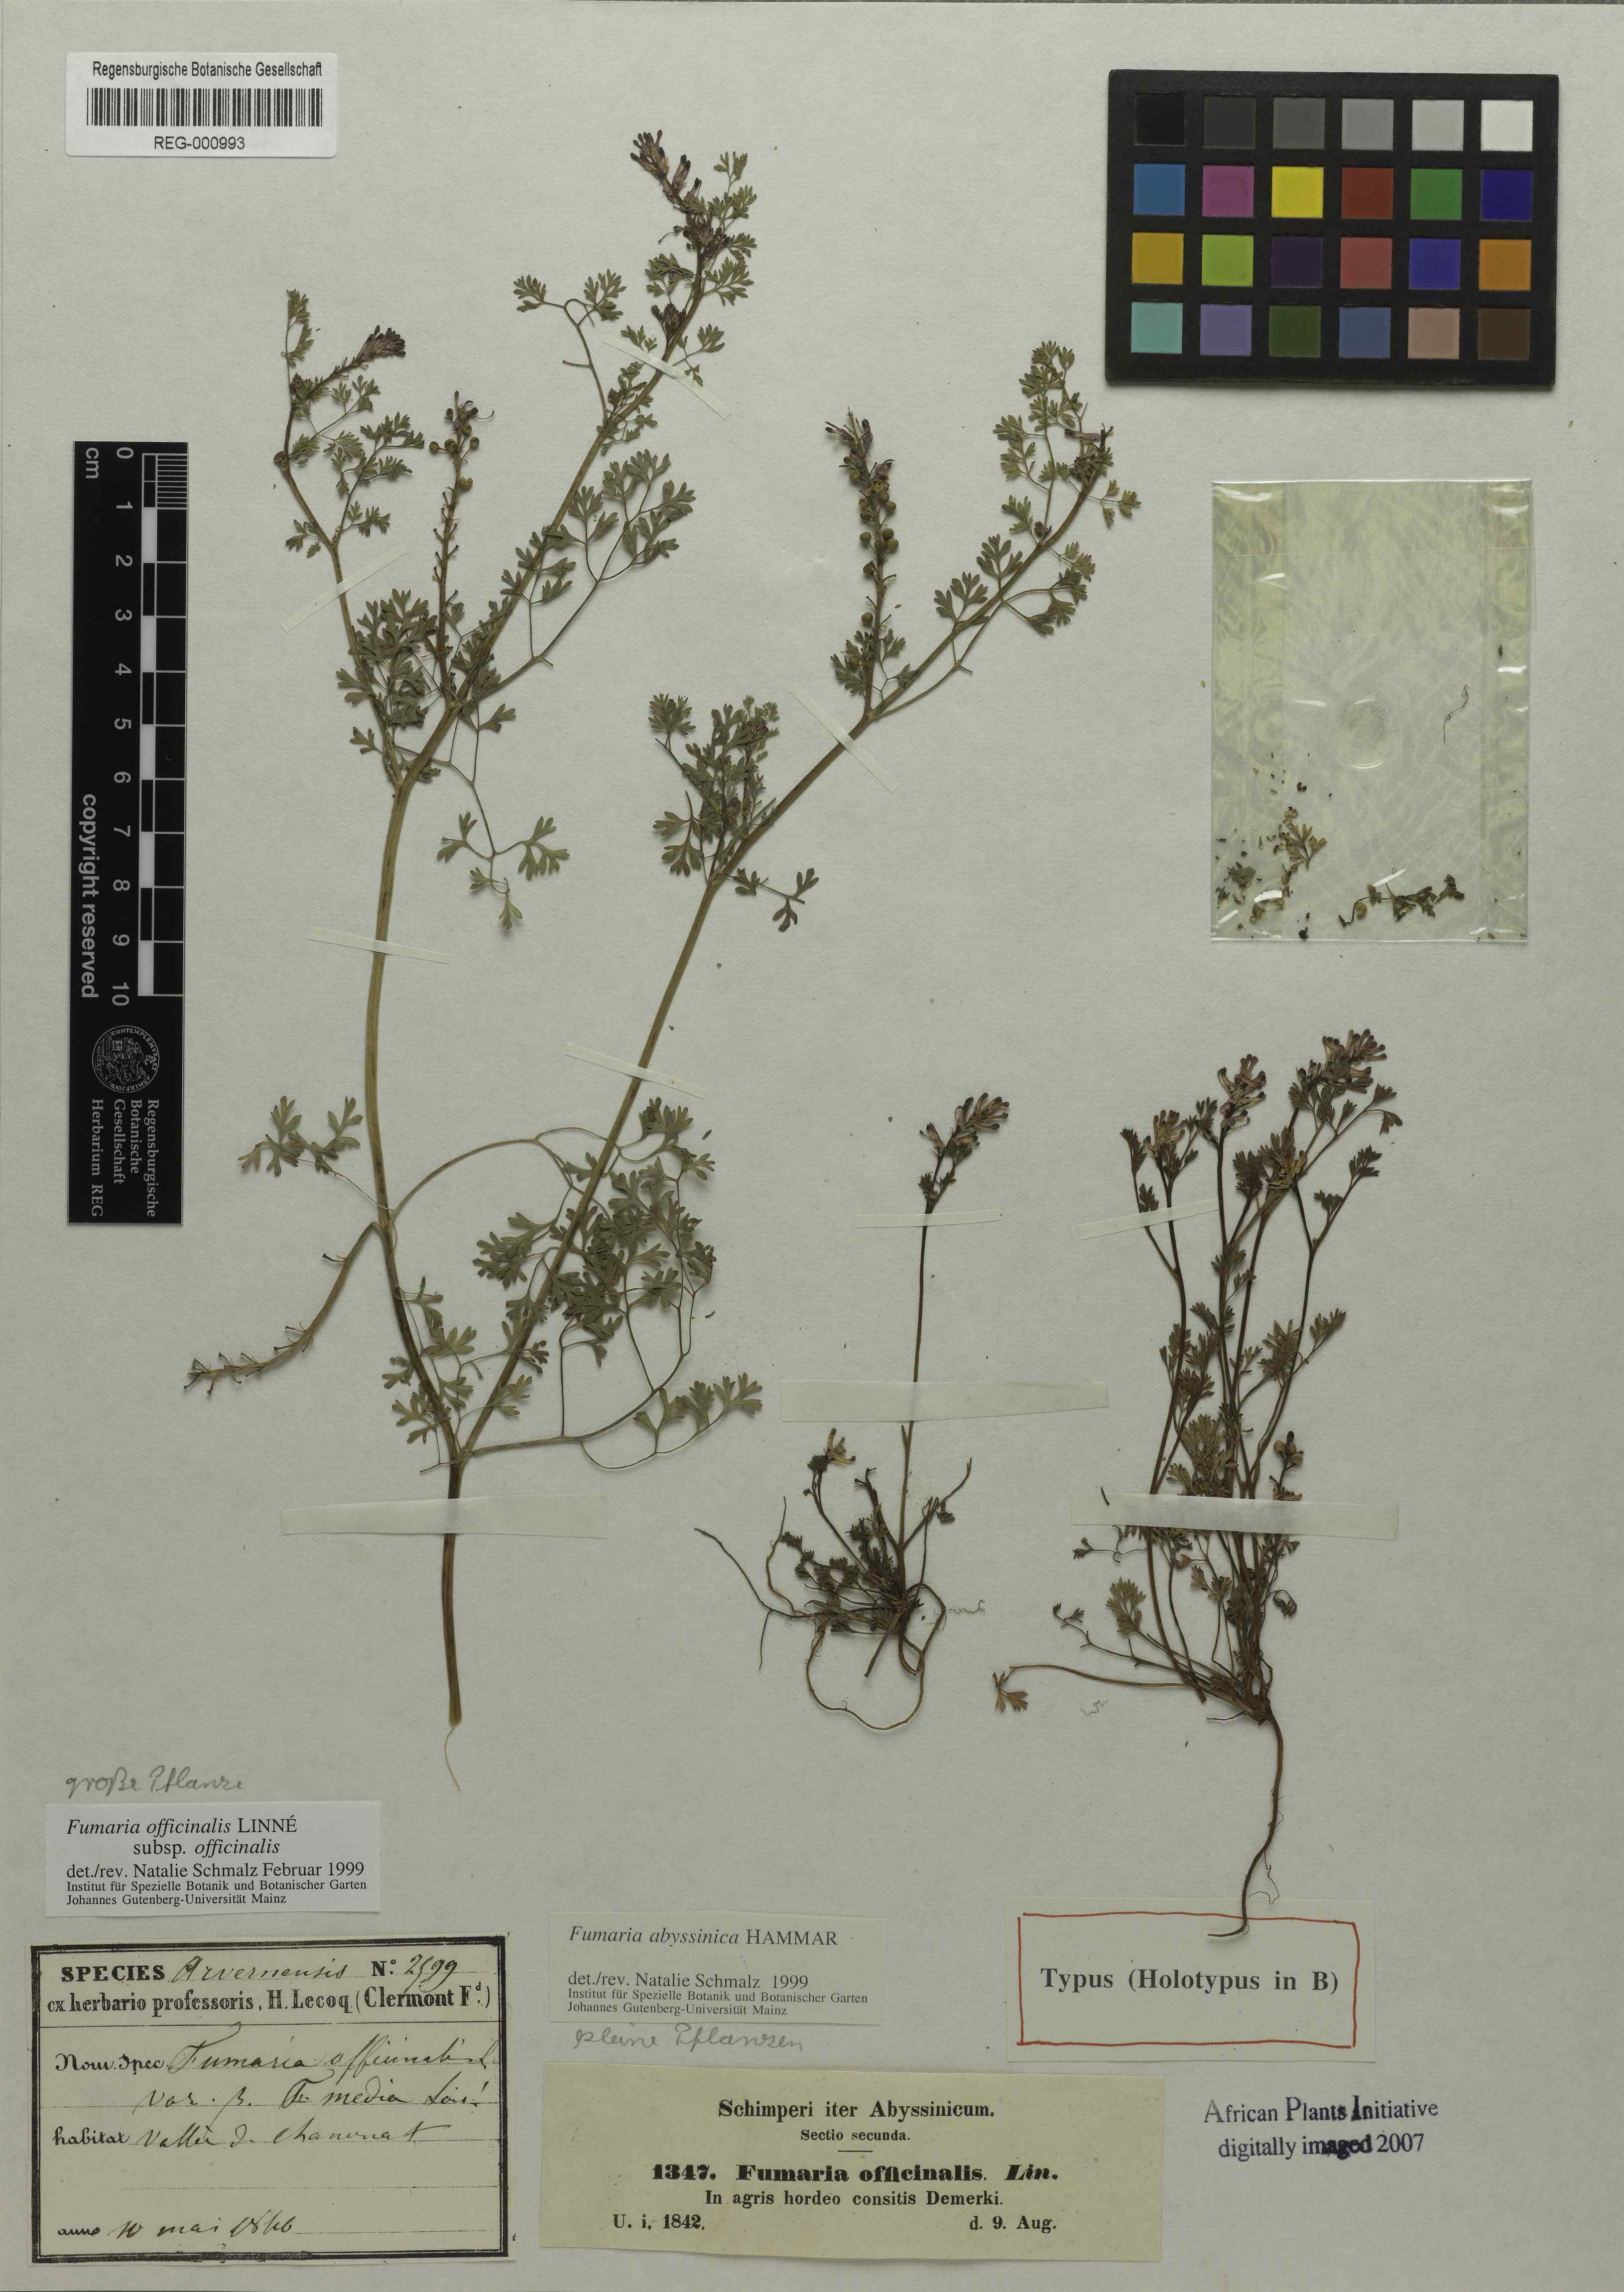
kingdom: Plantae
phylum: Tracheophyta
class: Magnoliopsida
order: Ranunculales
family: Papaveraceae
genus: Fumaria
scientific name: Fumaria abyssinica
